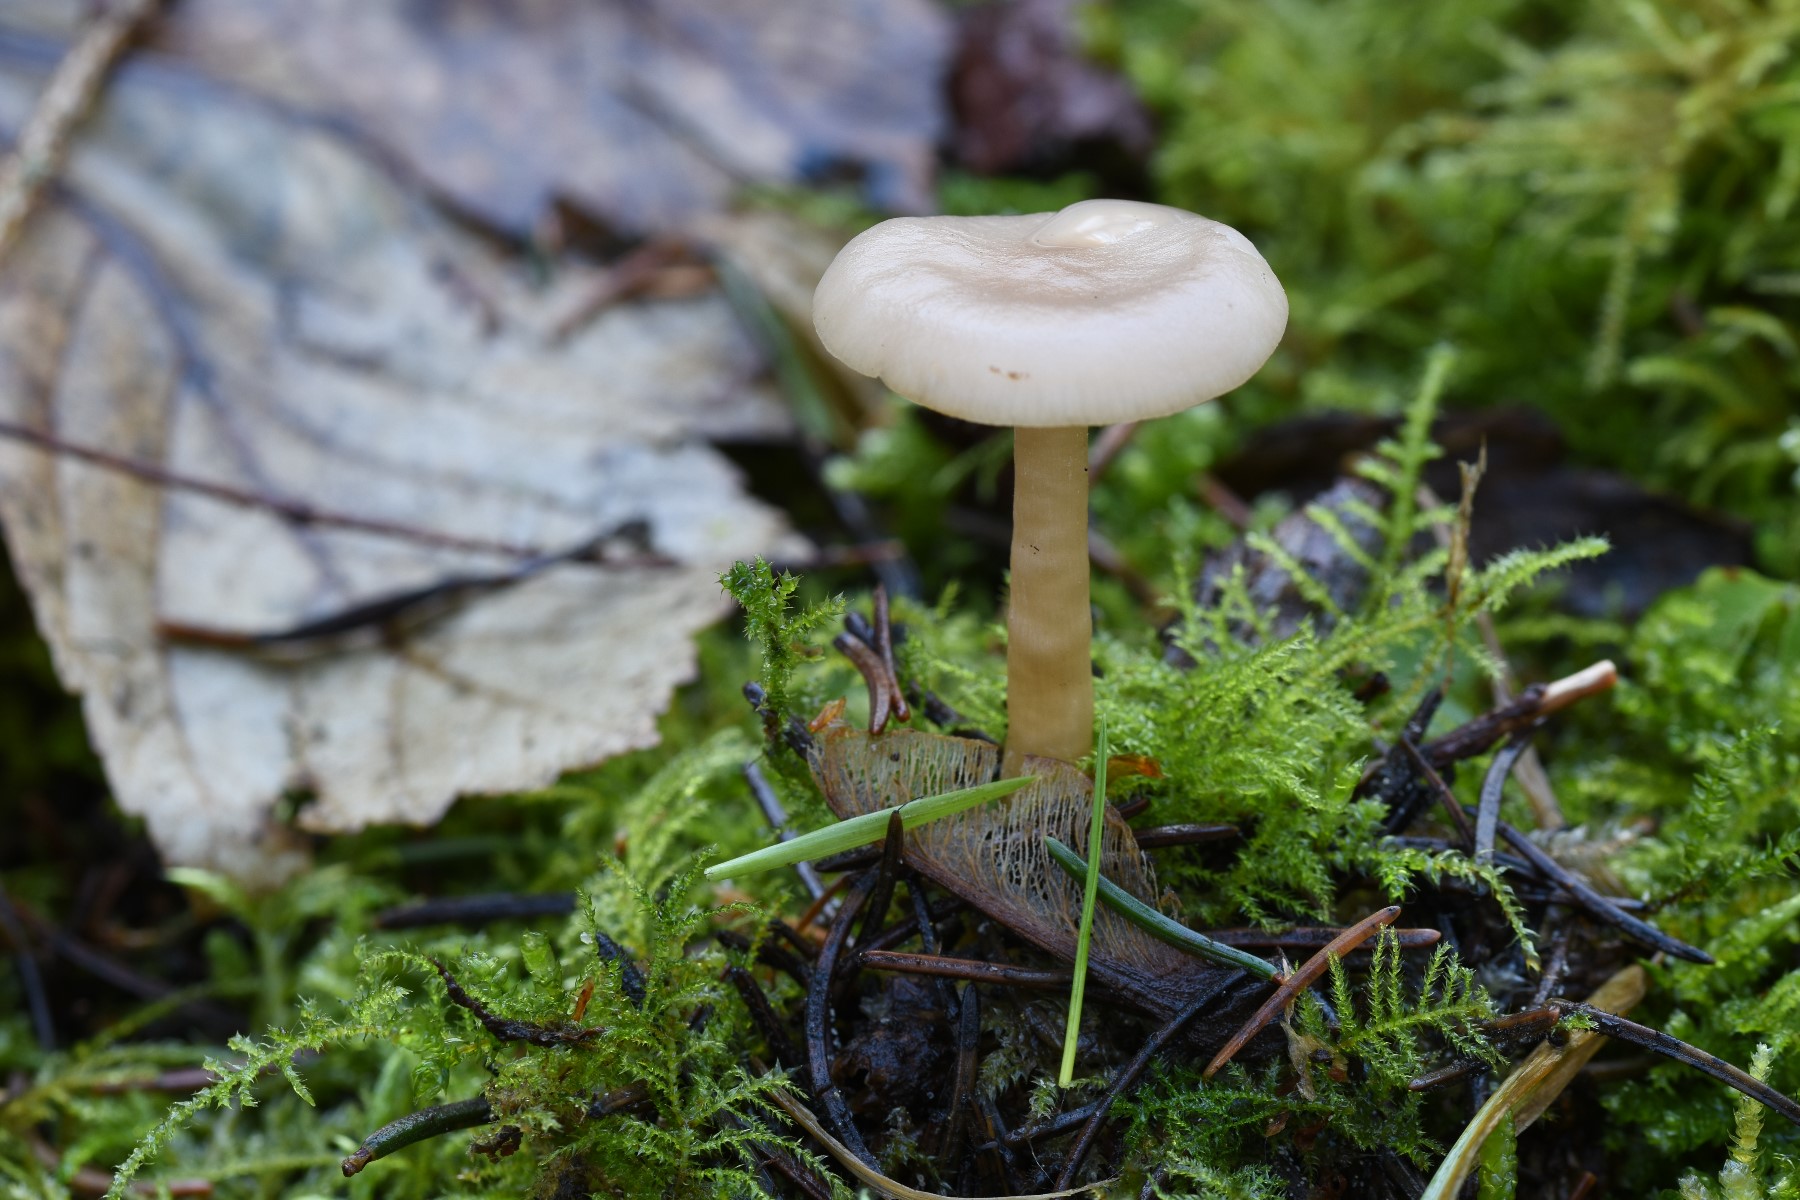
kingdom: Fungi
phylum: Basidiomycota
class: Agaricomycetes
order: Agaricales
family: Tricholomataceae
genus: Clitocybe
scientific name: Clitocybe fragrans
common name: vellugtende tragthat
